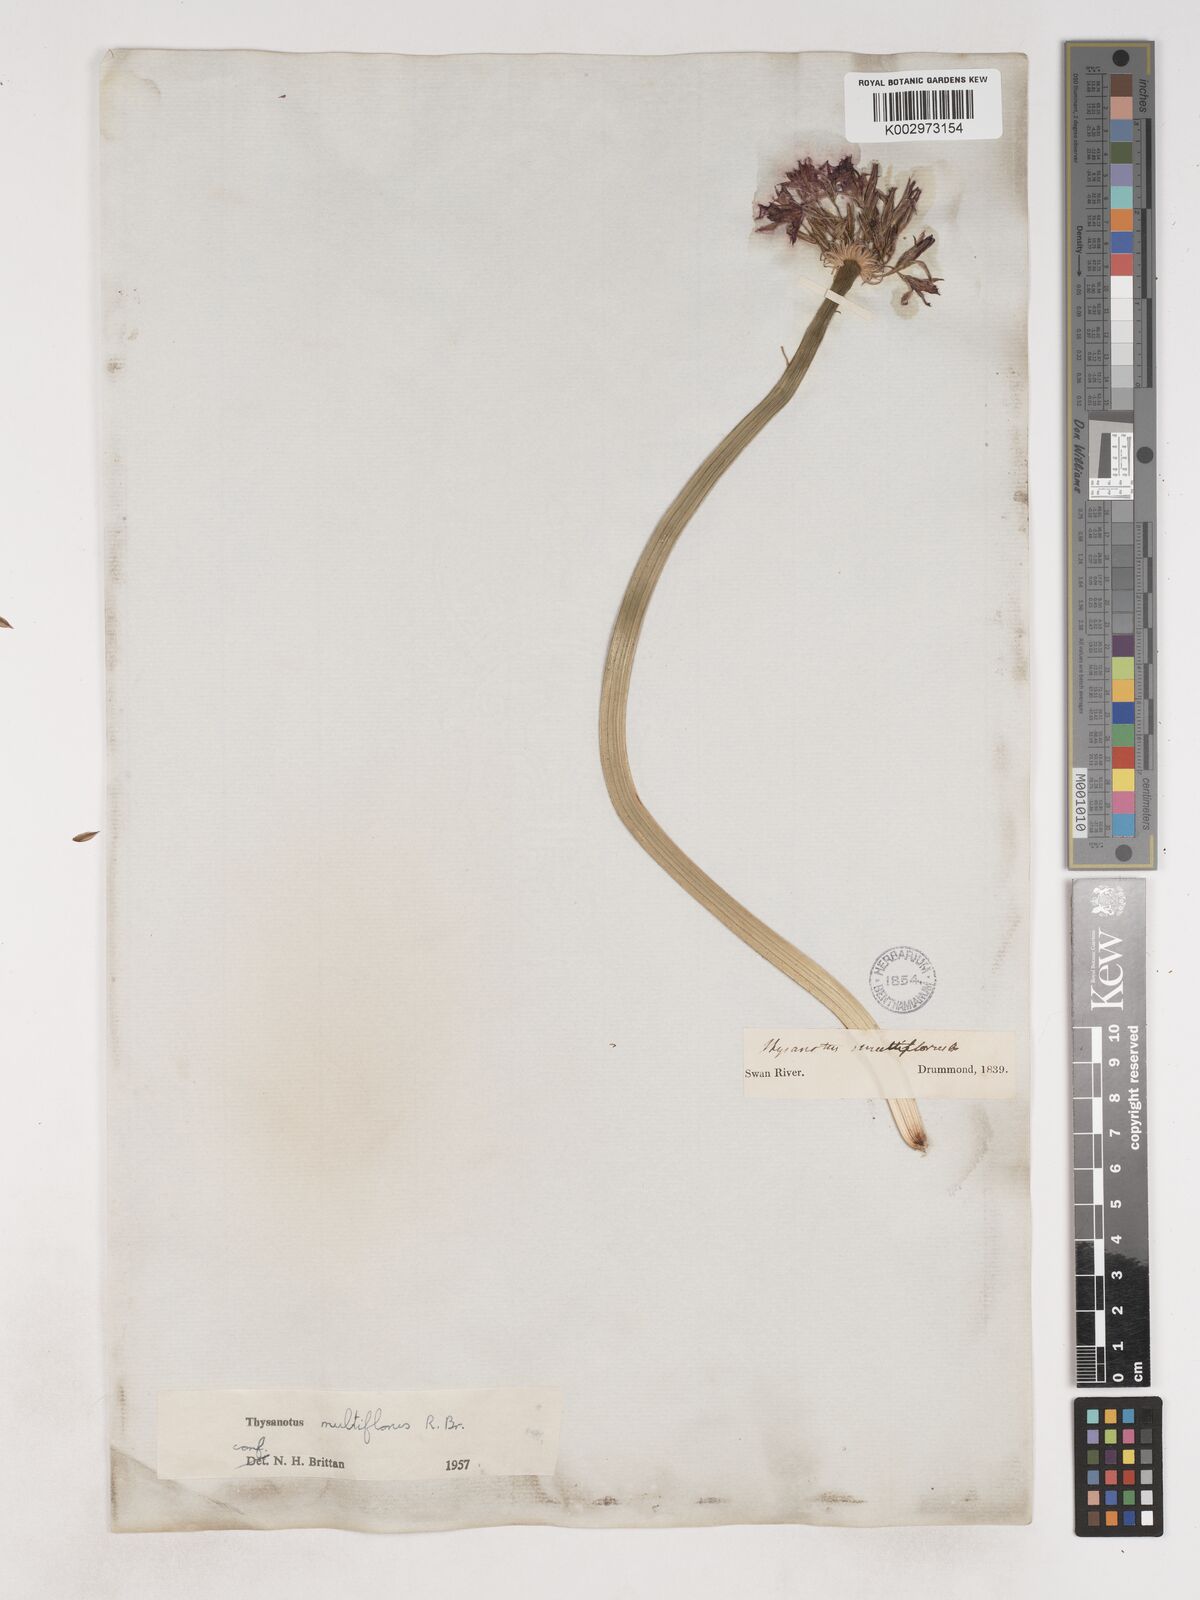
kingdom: Plantae
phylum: Tracheophyta
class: Liliopsida
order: Asparagales
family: Asparagaceae
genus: Thysanotus
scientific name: Thysanotus multiflorus
